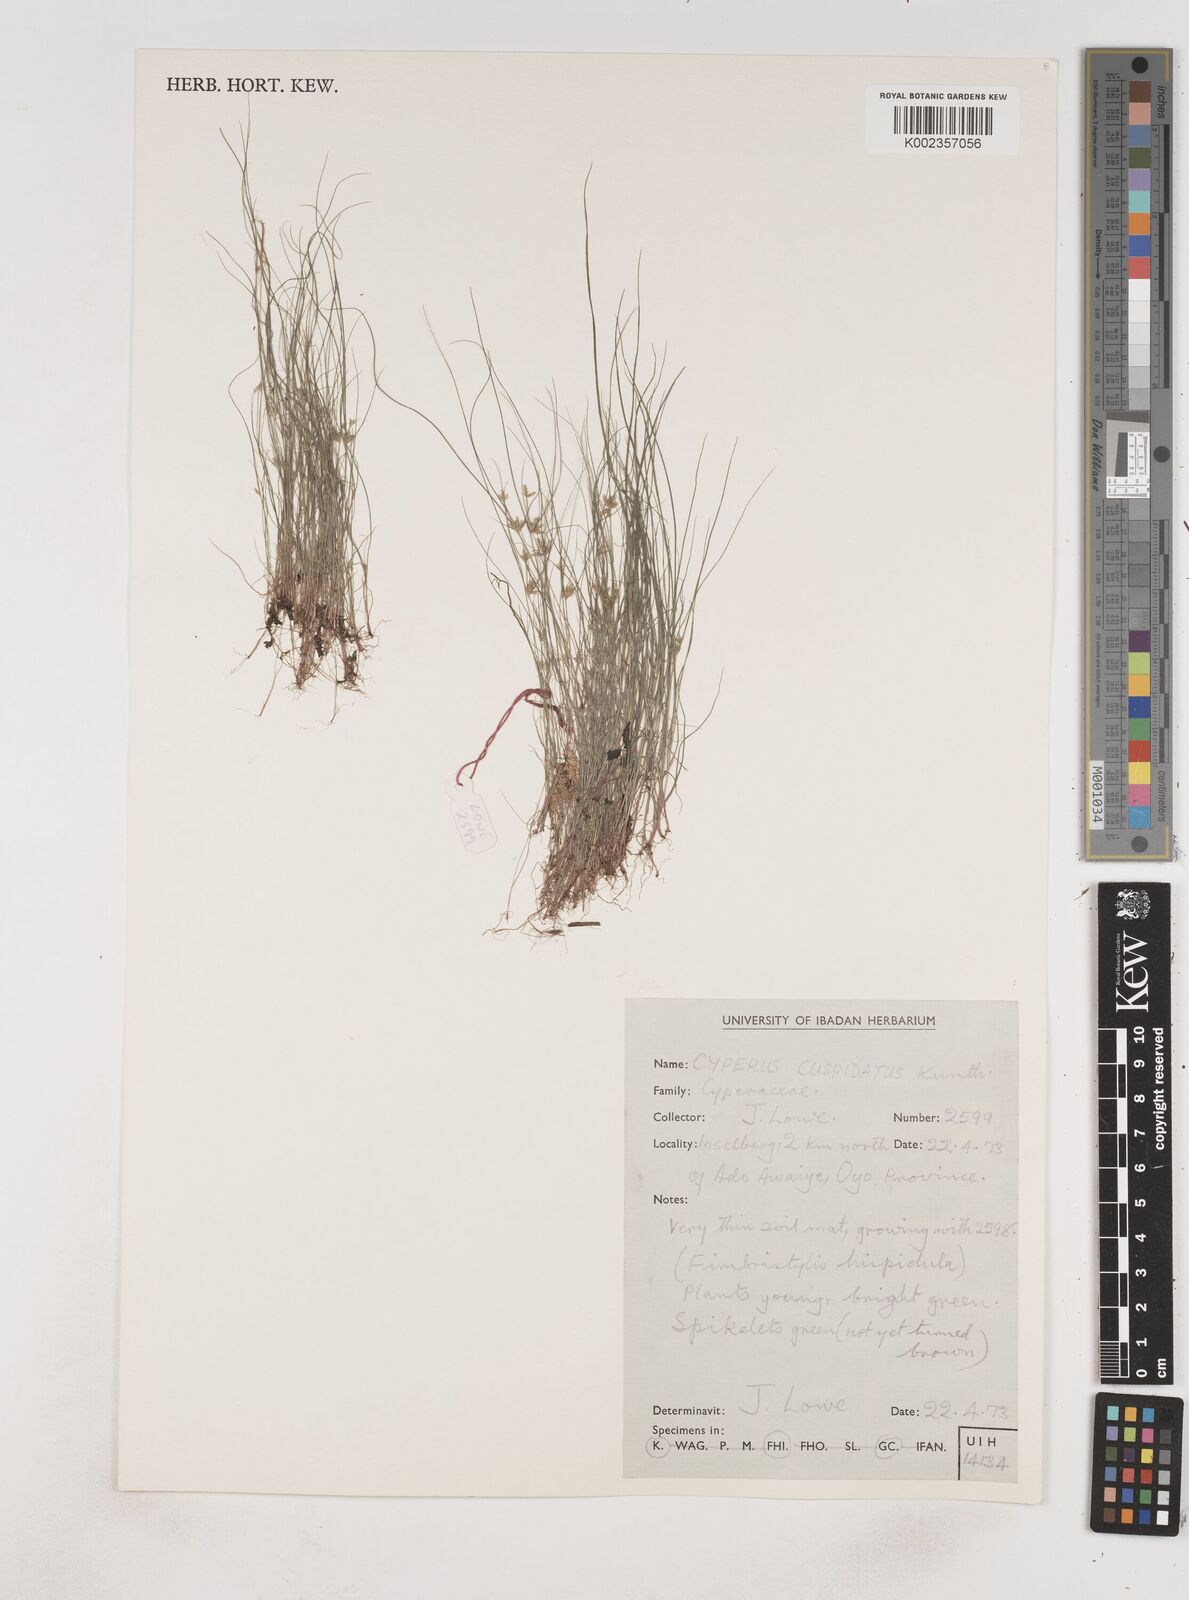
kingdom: Plantae
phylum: Tracheophyta
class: Liliopsida
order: Poales
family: Cyperaceae
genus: Cyperus
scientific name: Cyperus
